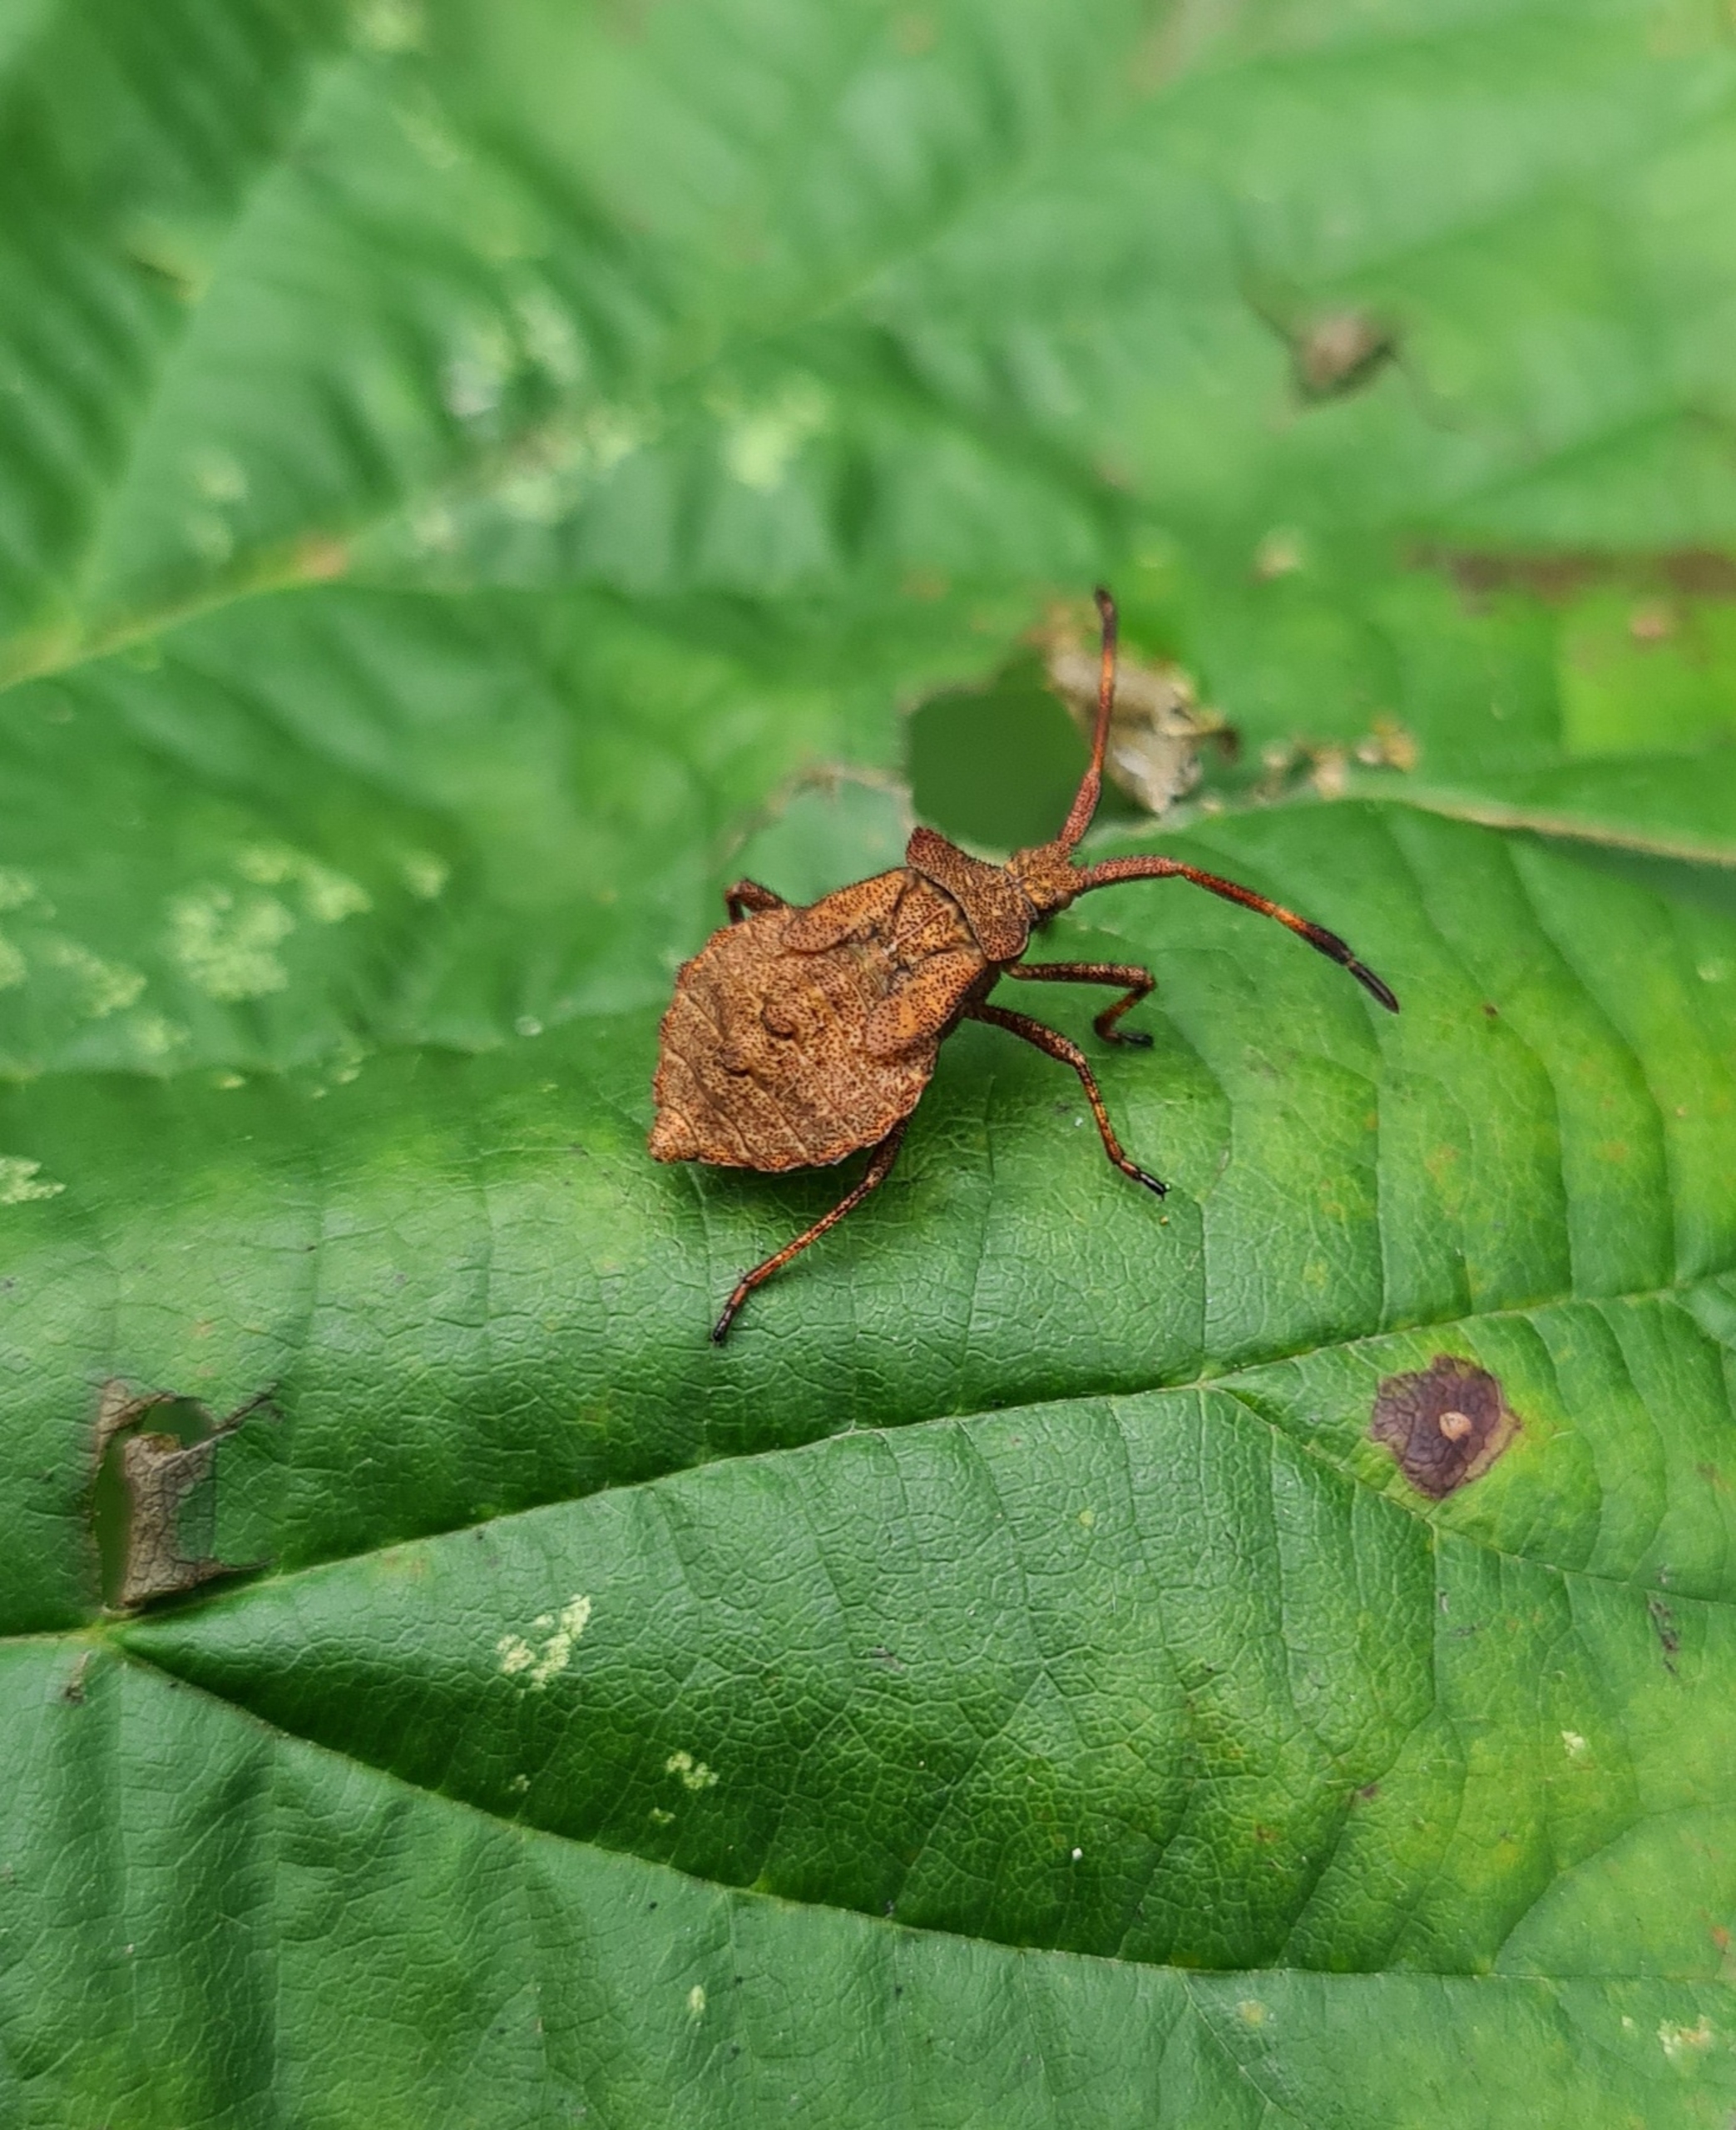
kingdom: Animalia
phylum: Arthropoda
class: Insecta
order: Hemiptera
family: Coreidae
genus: Coreus
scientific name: Coreus marginatus
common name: Skræppetæge
